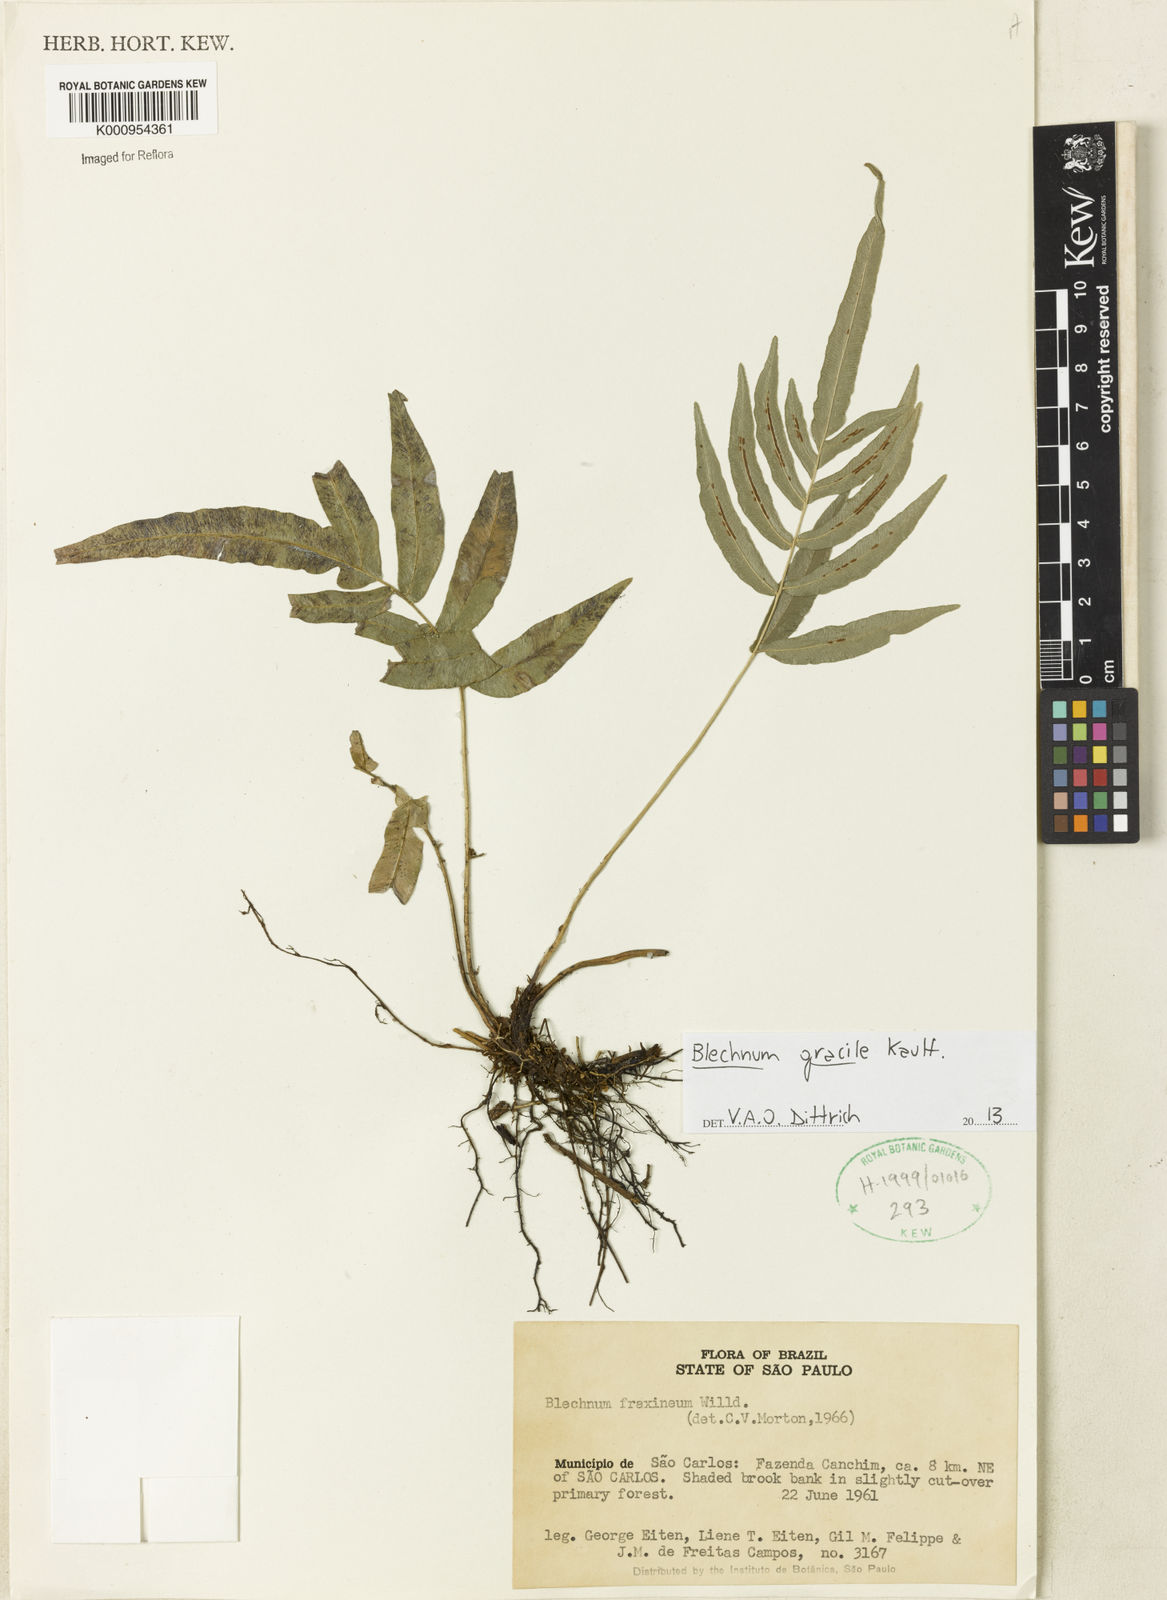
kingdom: Plantae
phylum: Tracheophyta
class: Polypodiopsida
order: Polypodiales
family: Blechnaceae
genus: Blechnum
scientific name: Blechnum gracile
